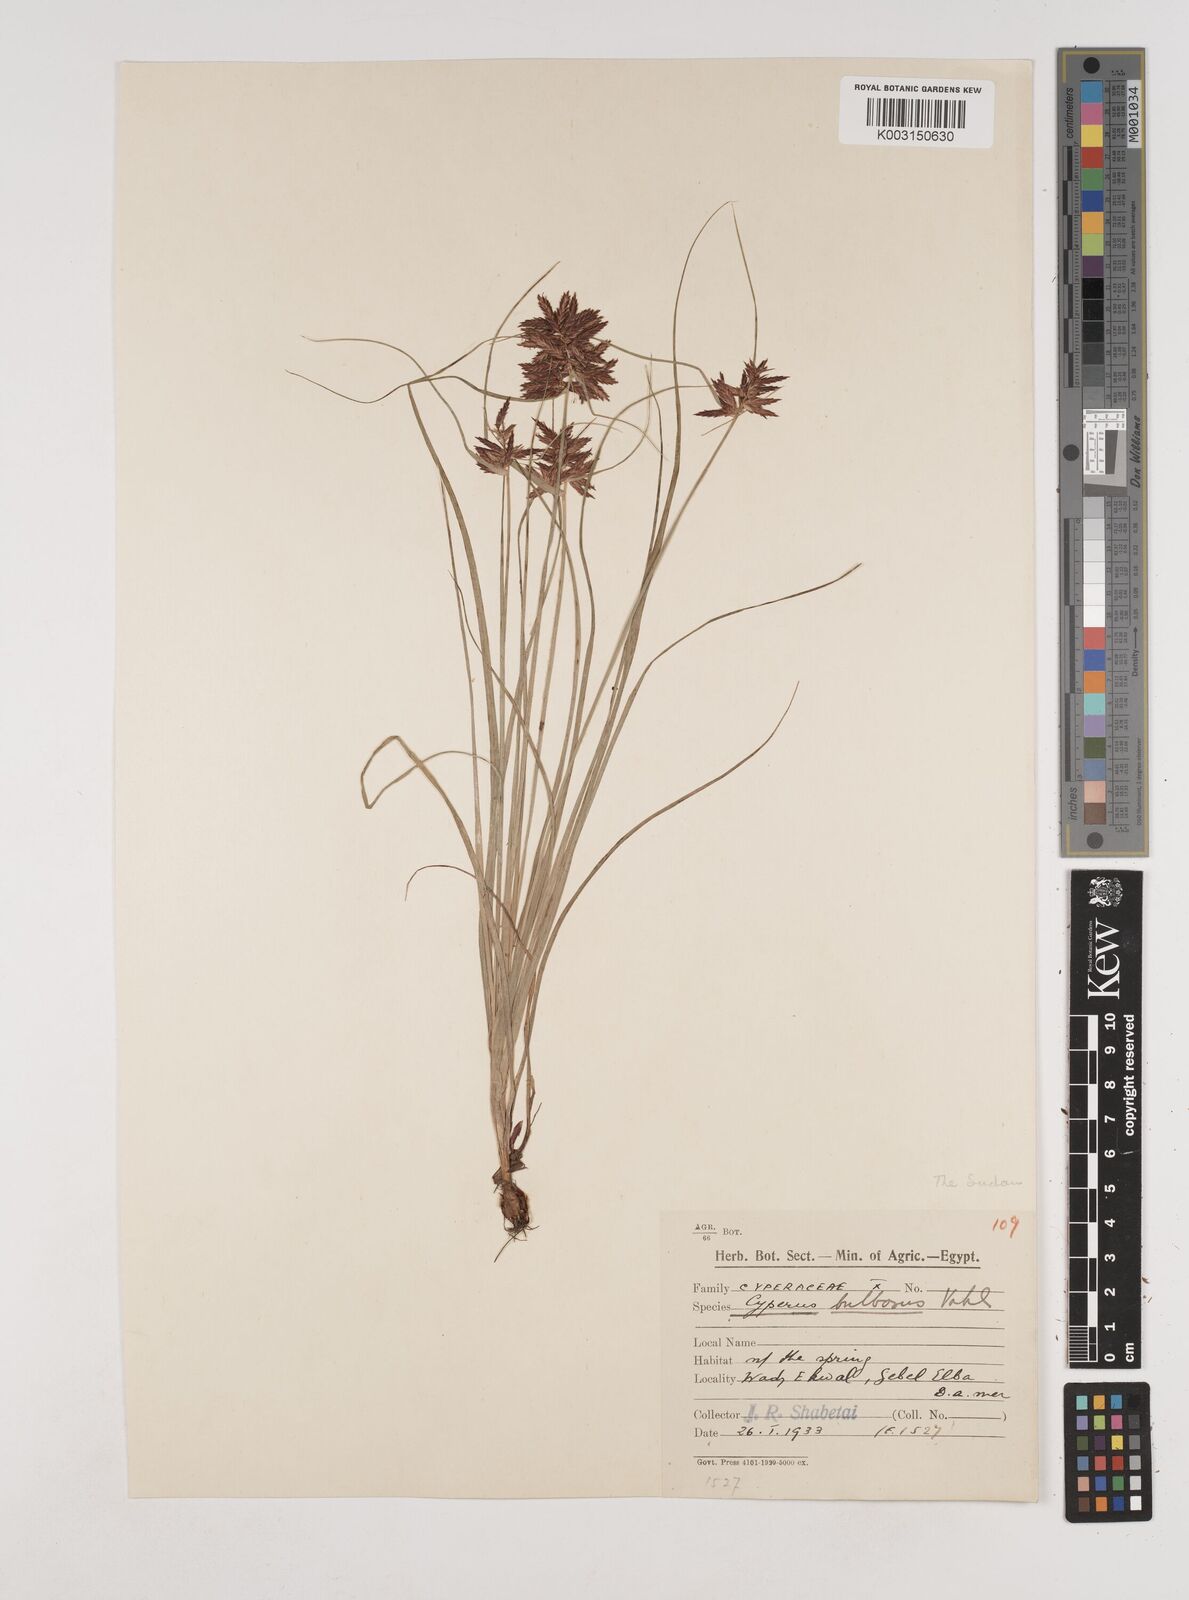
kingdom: Plantae
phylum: Tracheophyta
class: Liliopsida
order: Poales
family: Cyperaceae
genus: Cyperus
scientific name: Cyperus bulbosus
